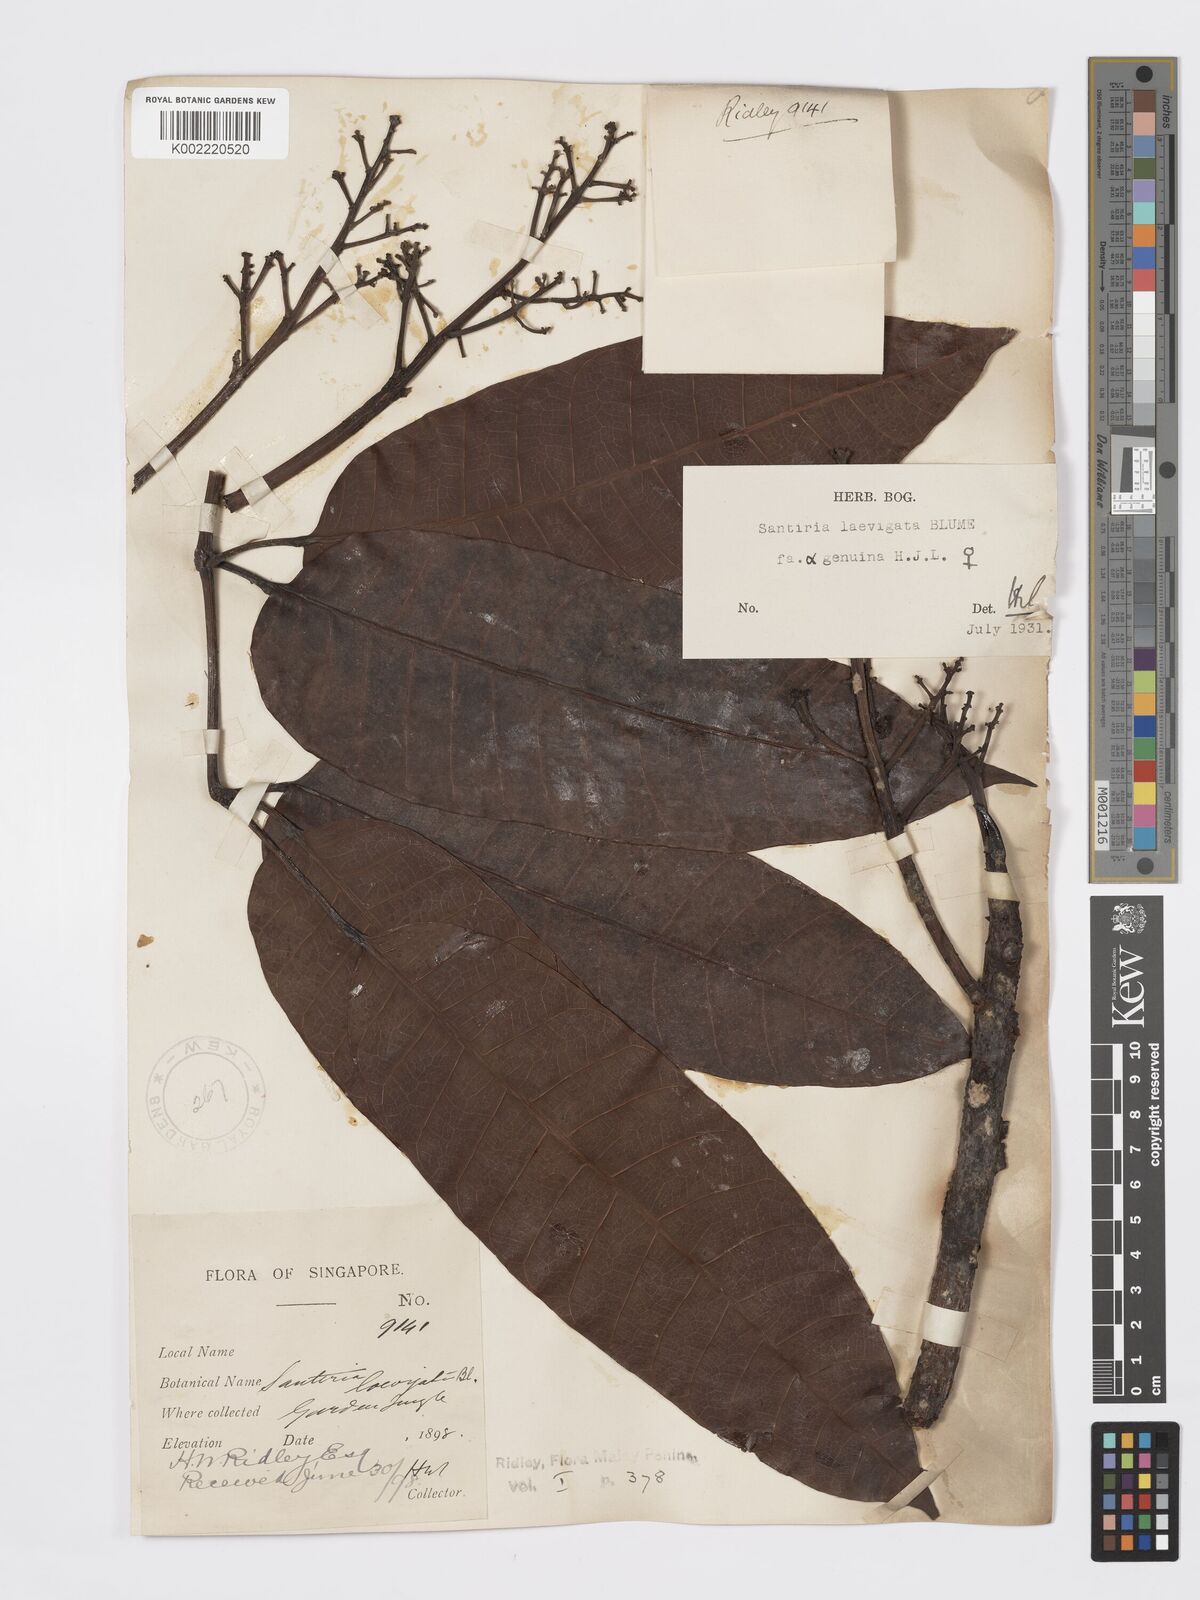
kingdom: Plantae
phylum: Tracheophyta
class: Magnoliopsida
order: Sapindales
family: Burseraceae
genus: Santiria
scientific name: Santiria laevigata
